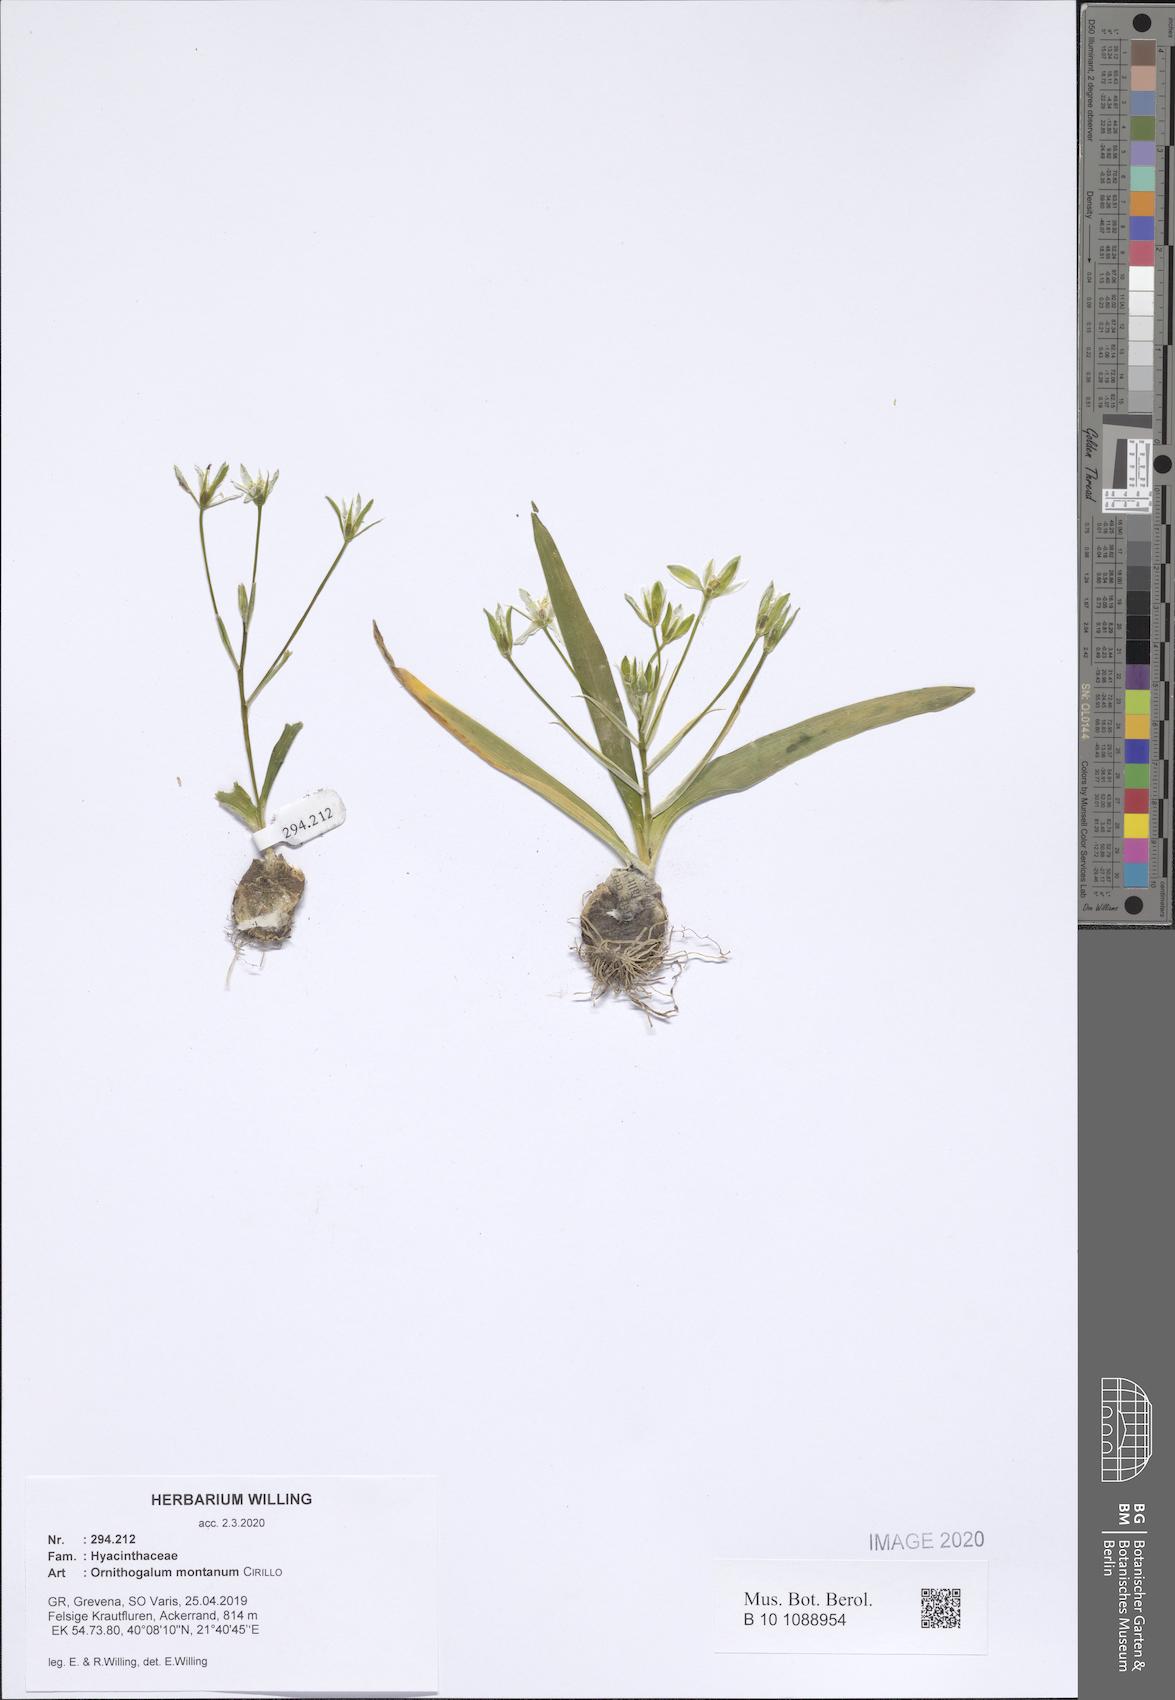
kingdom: Plantae
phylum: Tracheophyta
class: Liliopsida
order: Asparagales
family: Asparagaceae
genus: Ornithogalum
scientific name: Ornithogalum montanum
